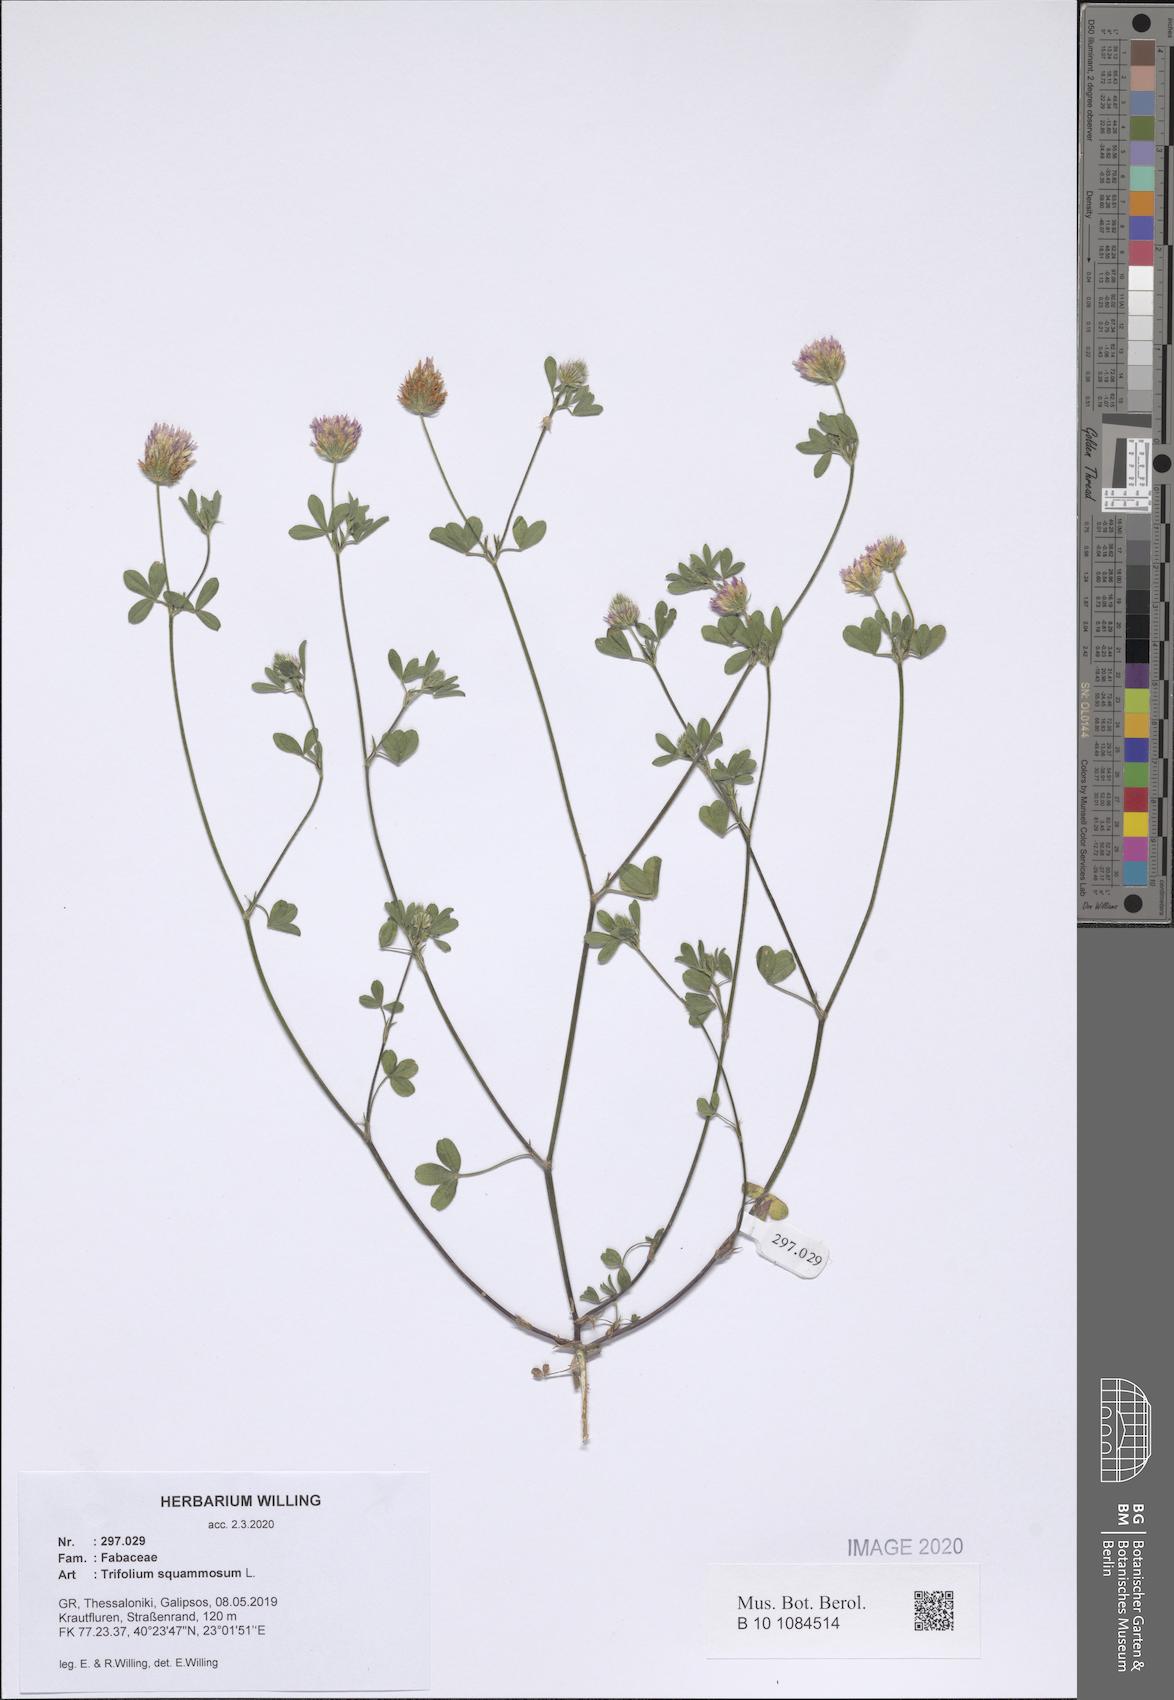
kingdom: Plantae
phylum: Tracheophyta
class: Magnoliopsida
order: Fabales
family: Fabaceae
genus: Trifolium
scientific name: Trifolium squamosum
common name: Sea clover
